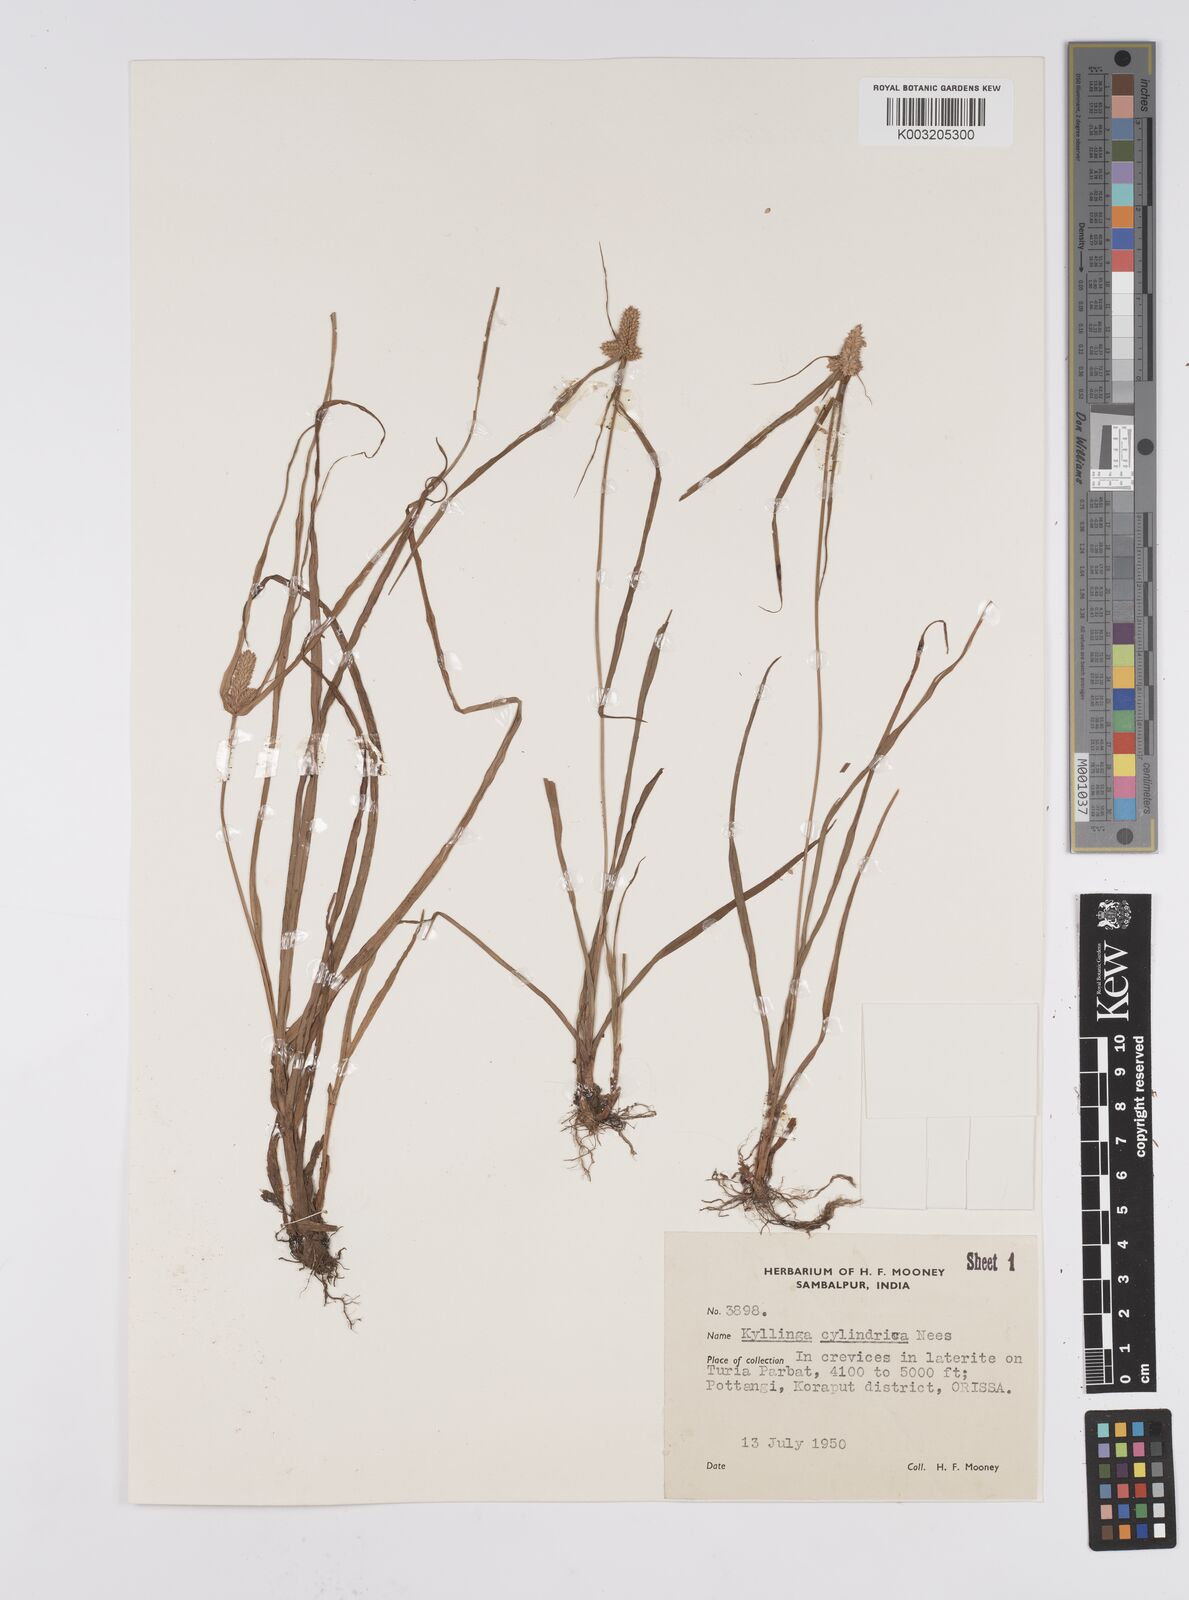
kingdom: Plantae
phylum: Tracheophyta
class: Liliopsida
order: Poales
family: Cyperaceae
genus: Cyperus
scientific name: Cyperus
